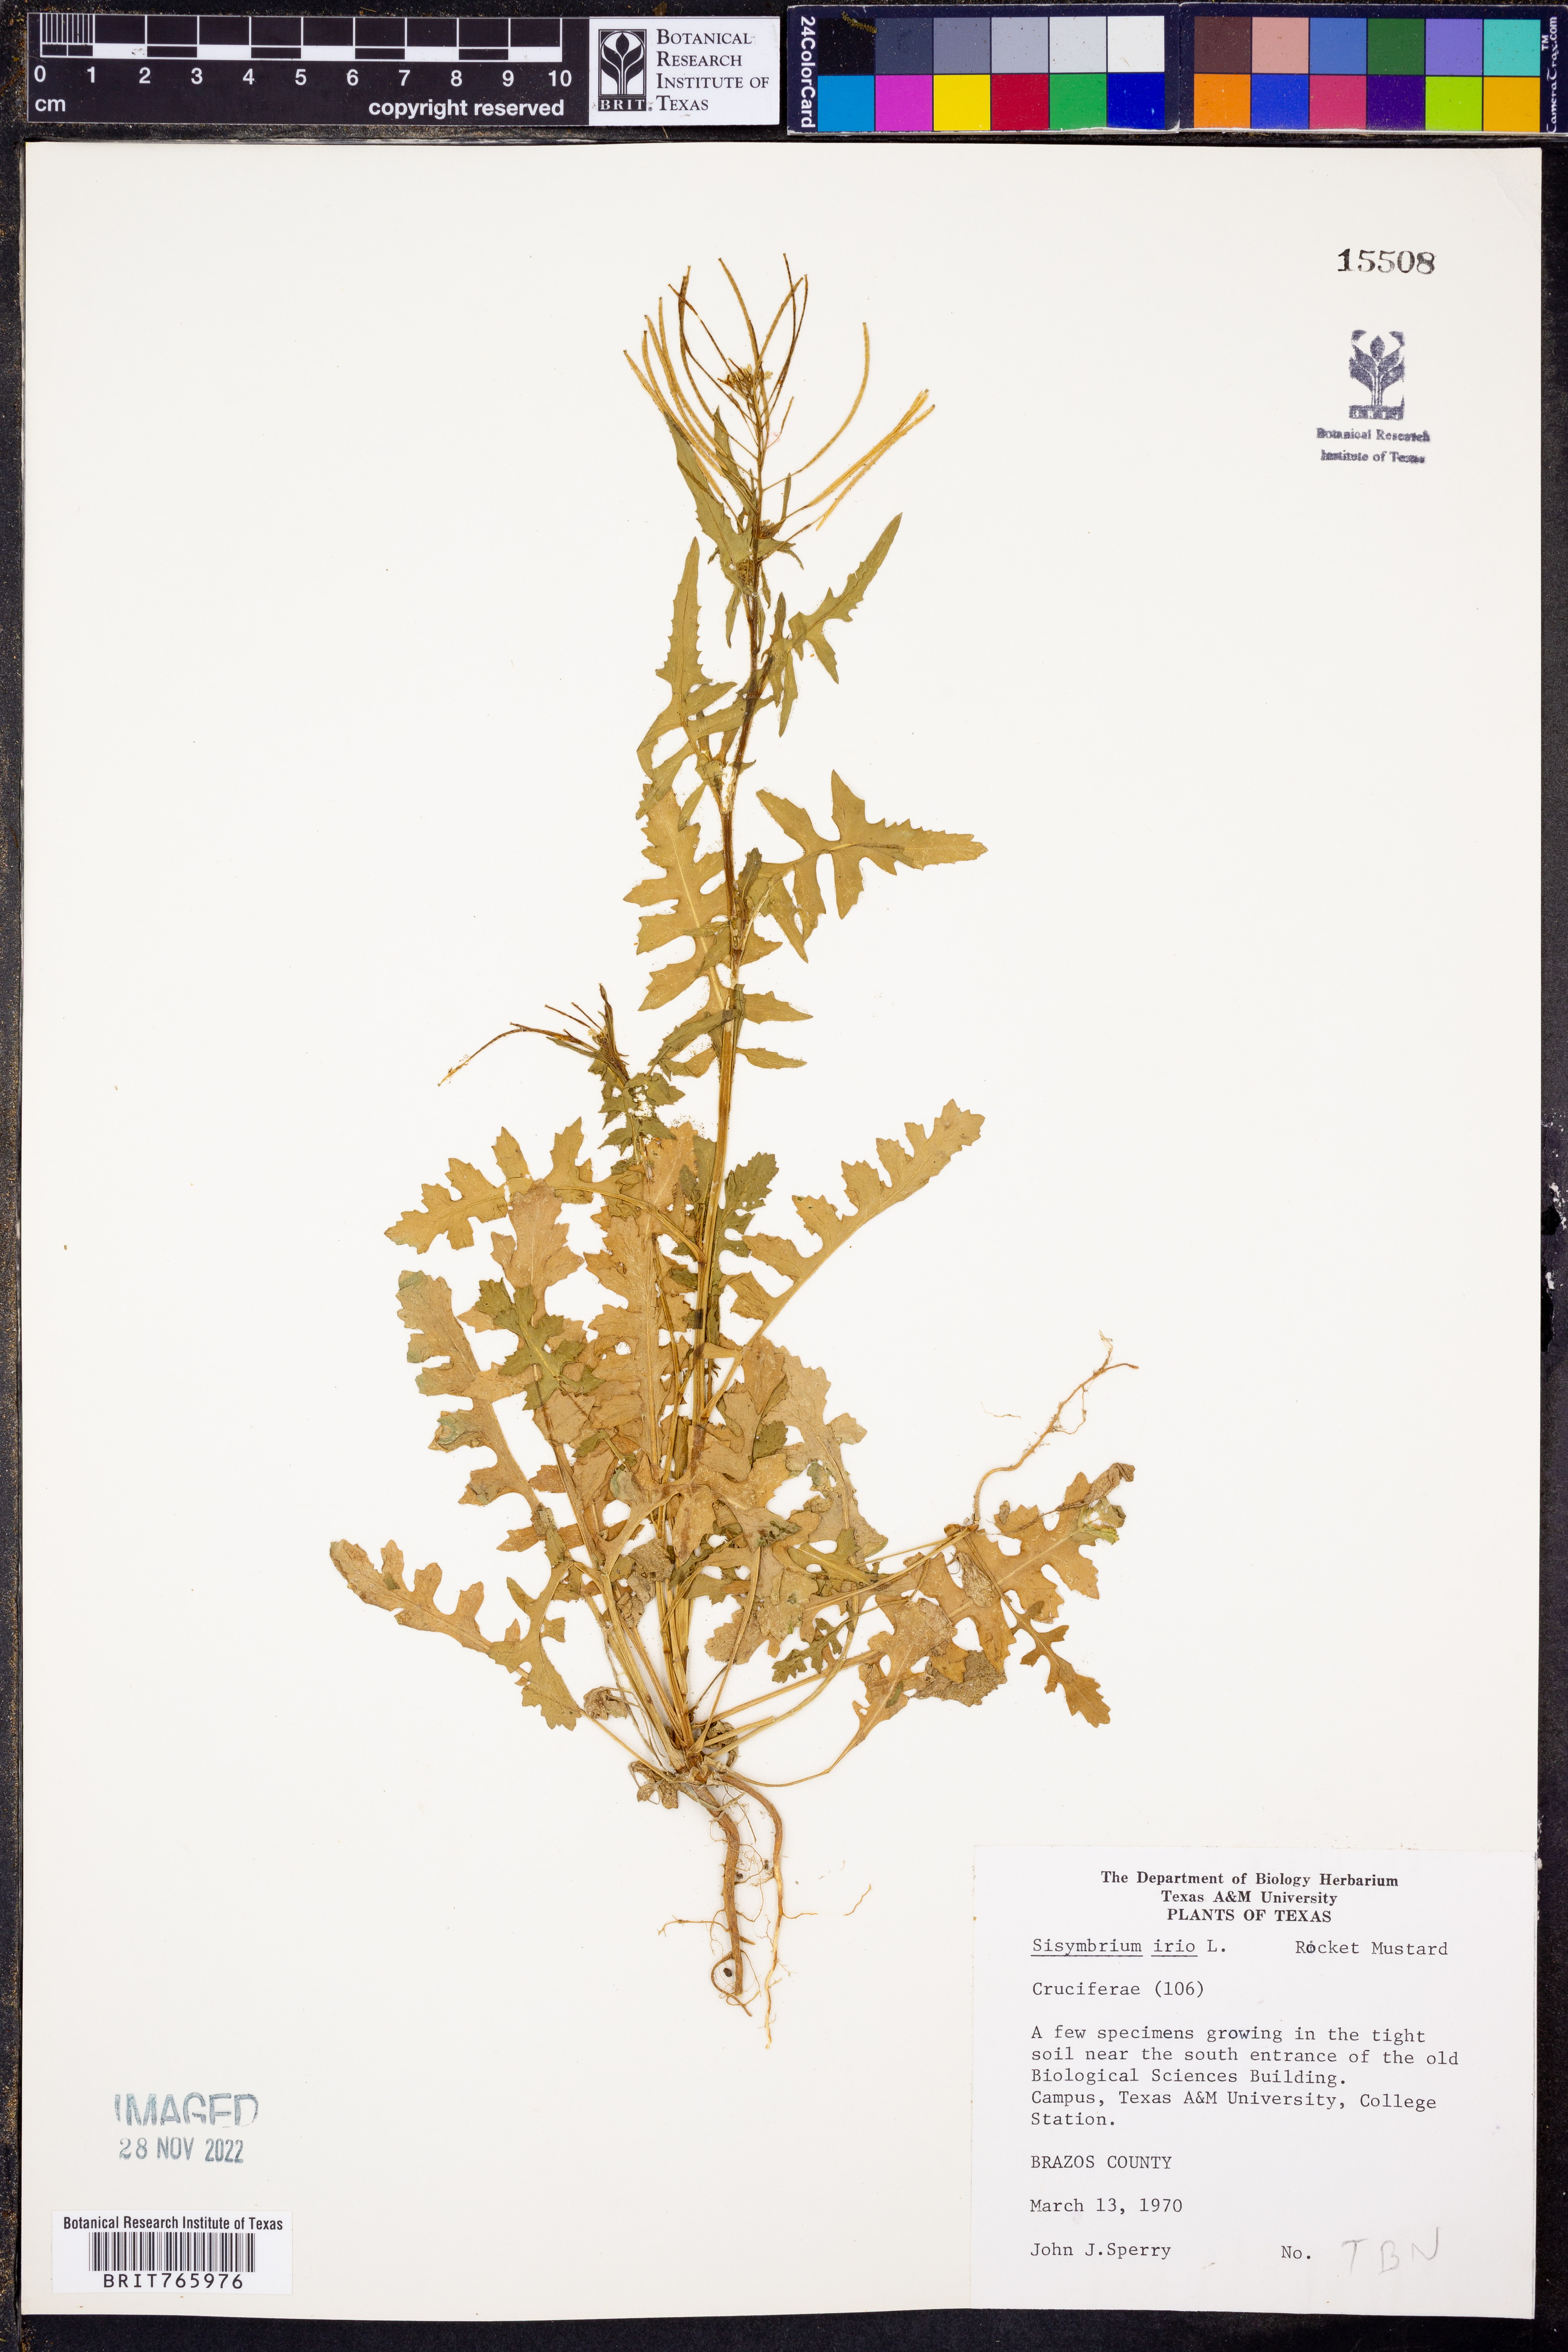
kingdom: Plantae
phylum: Tracheophyta
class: Magnoliopsida
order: Brassicales
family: Brassicaceae
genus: Sisymbrium
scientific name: Sisymbrium irio
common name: London rocket
